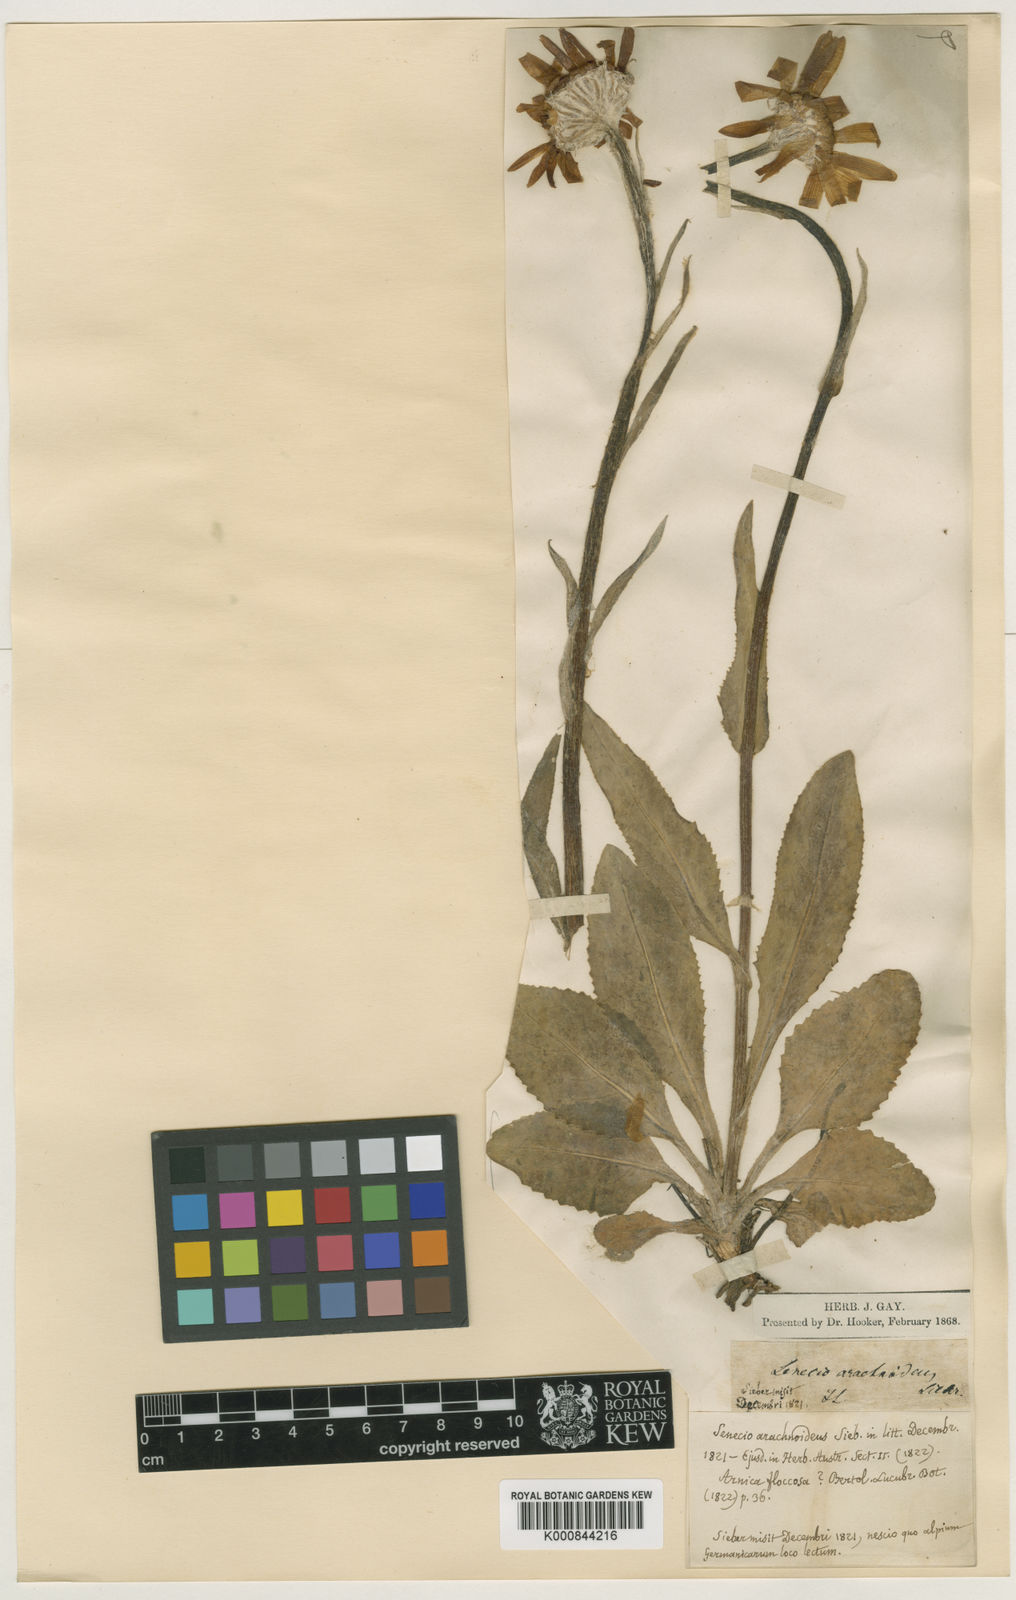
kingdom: Plantae
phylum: Tracheophyta
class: Magnoliopsida
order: Asterales
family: Asteraceae
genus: Monticalia
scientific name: Monticalia ledifolia
